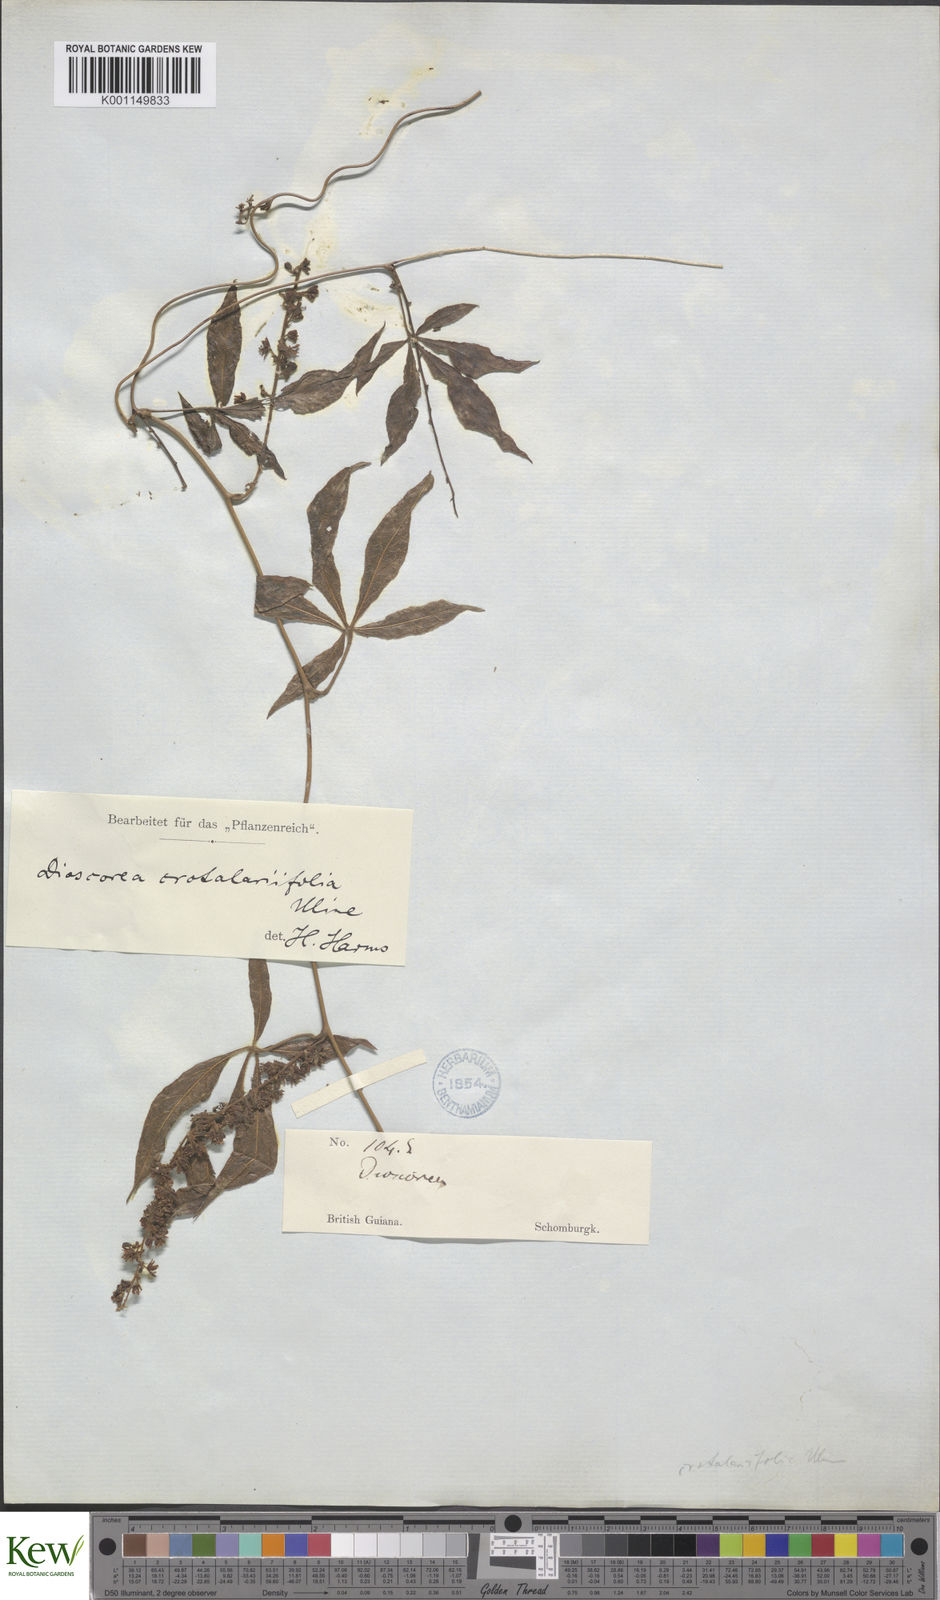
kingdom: Plantae
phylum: Tracheophyta
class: Liliopsida
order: Dioscoreales
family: Dioscoreaceae
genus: Dioscorea
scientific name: Dioscorea crotalariifolia
